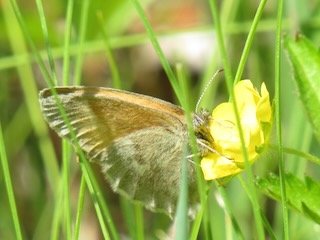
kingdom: Animalia
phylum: Arthropoda
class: Insecta
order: Lepidoptera
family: Nymphalidae
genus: Coenonympha
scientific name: Coenonympha tullia
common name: Large Heath
